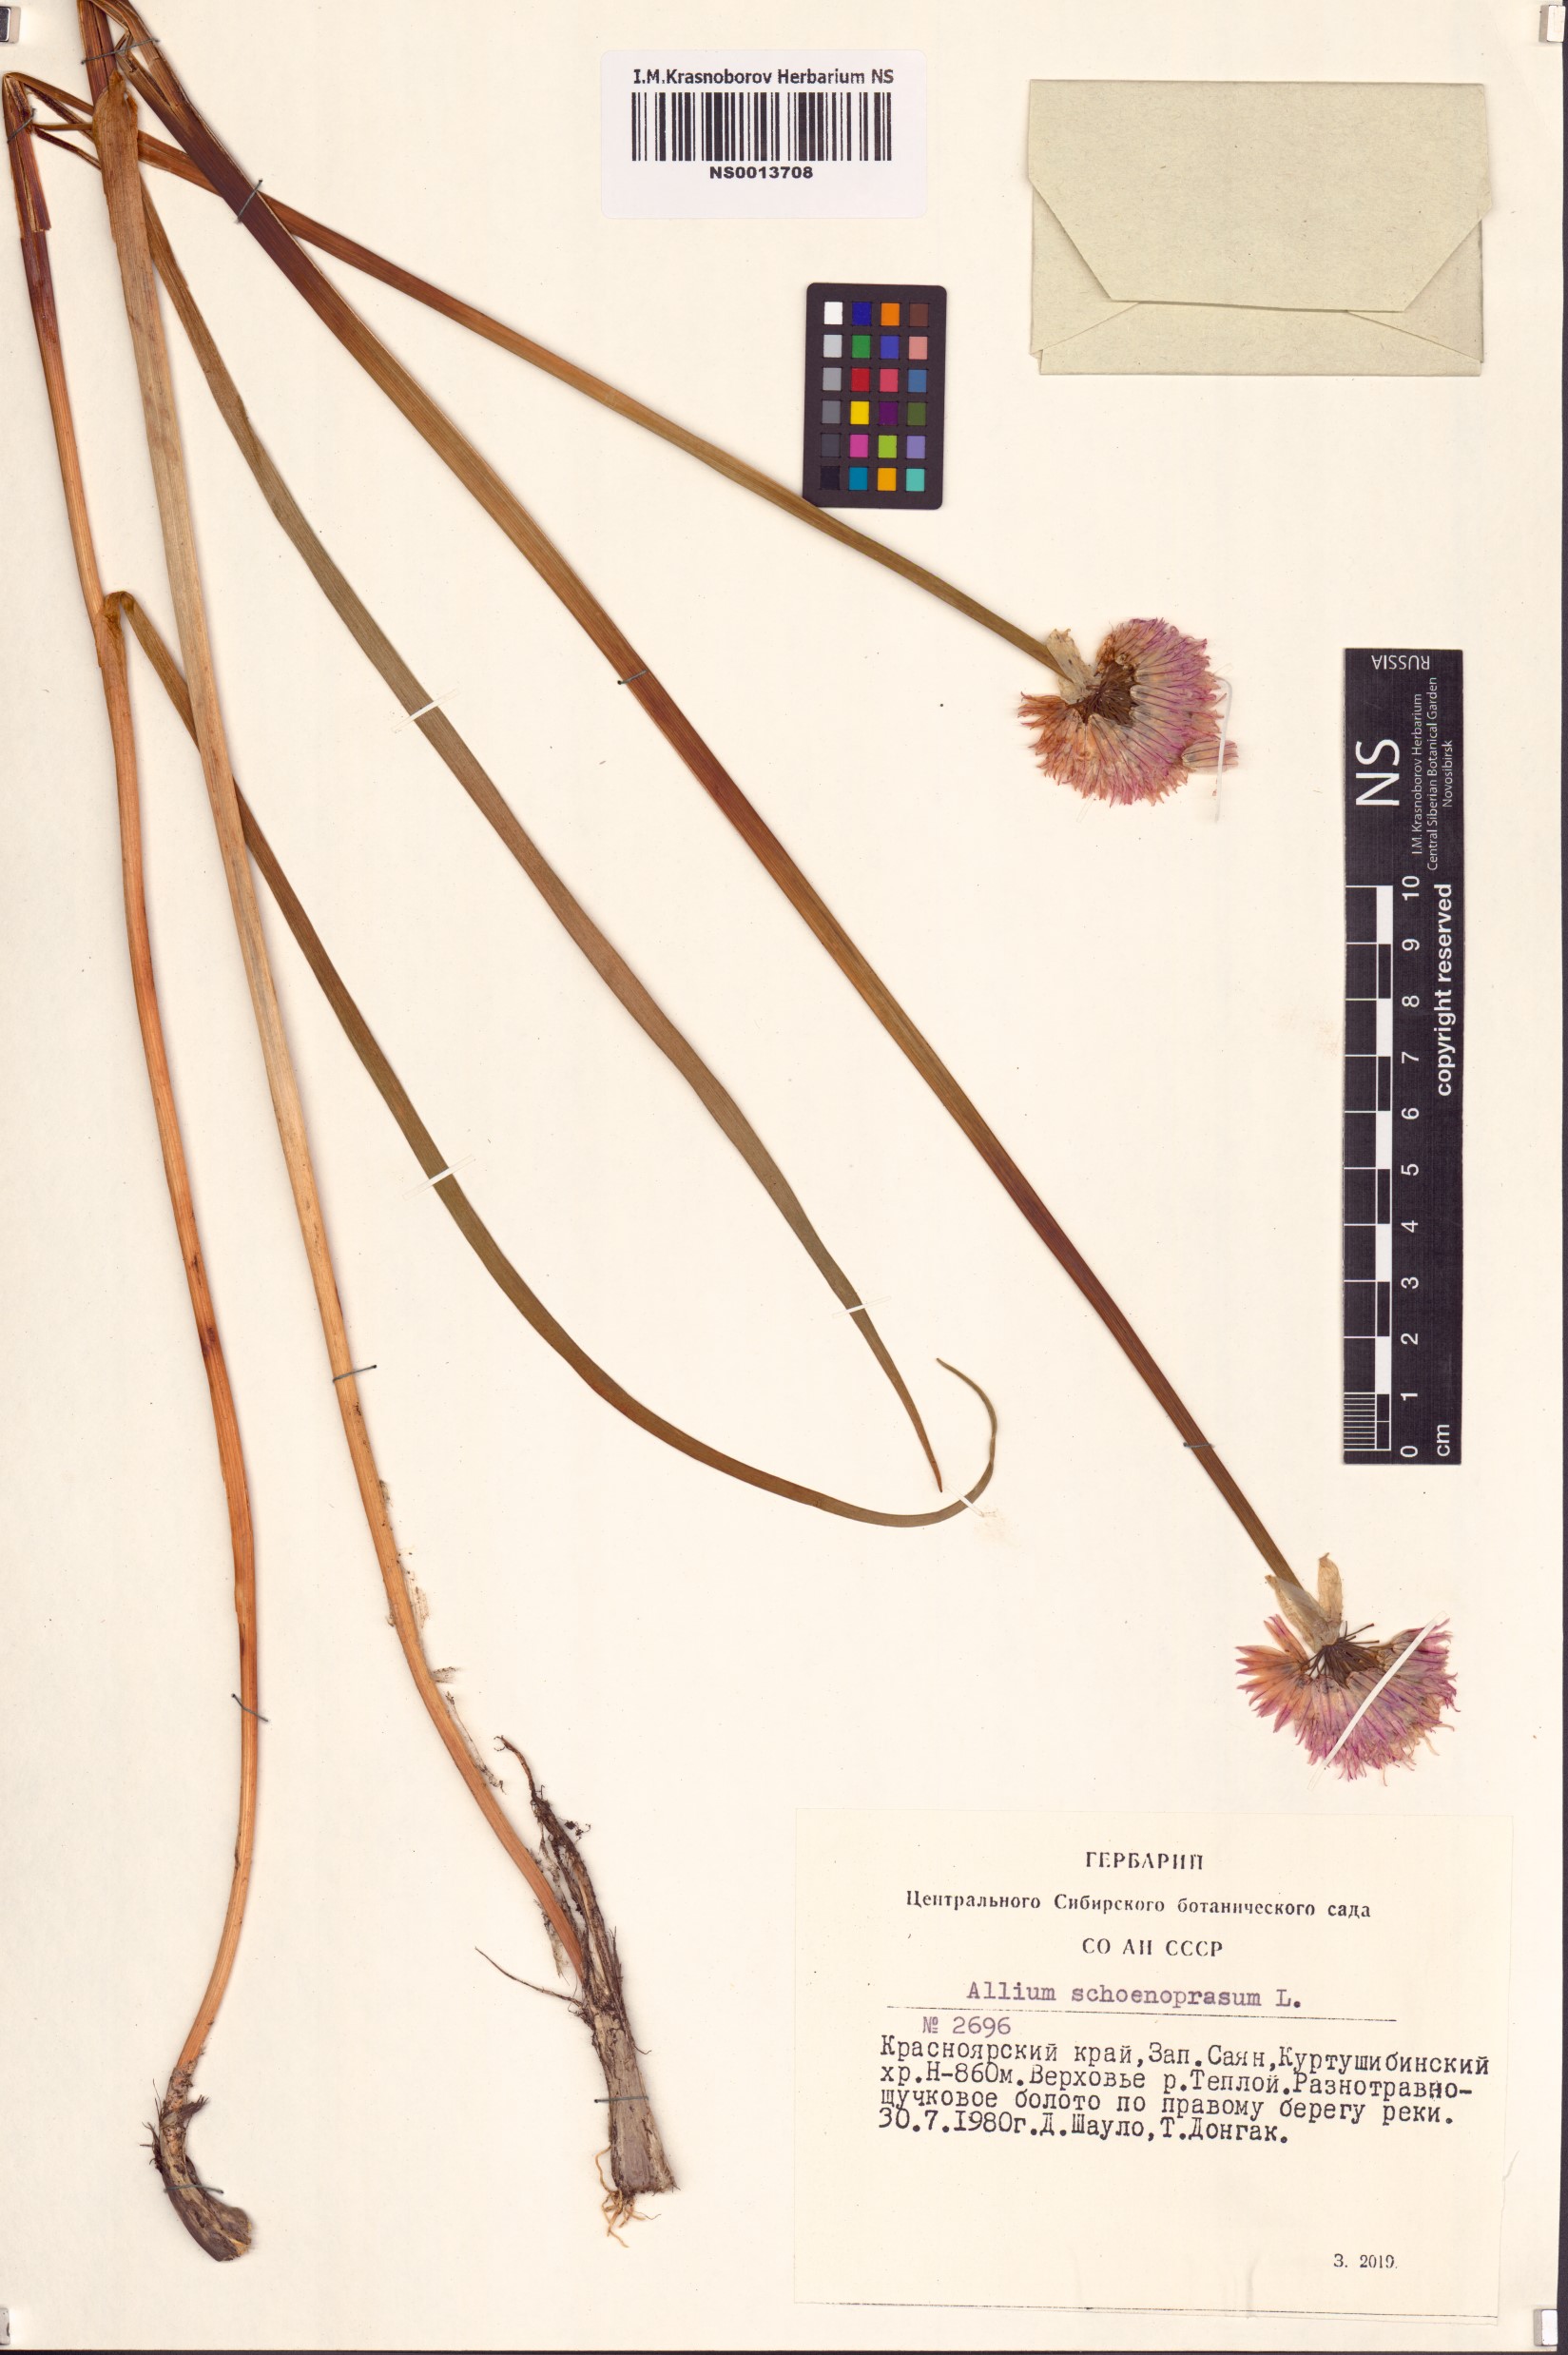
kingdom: Plantae
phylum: Tracheophyta
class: Liliopsida
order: Asparagales
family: Amaryllidaceae
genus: Allium
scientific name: Allium schoenoprasum
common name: Chives
